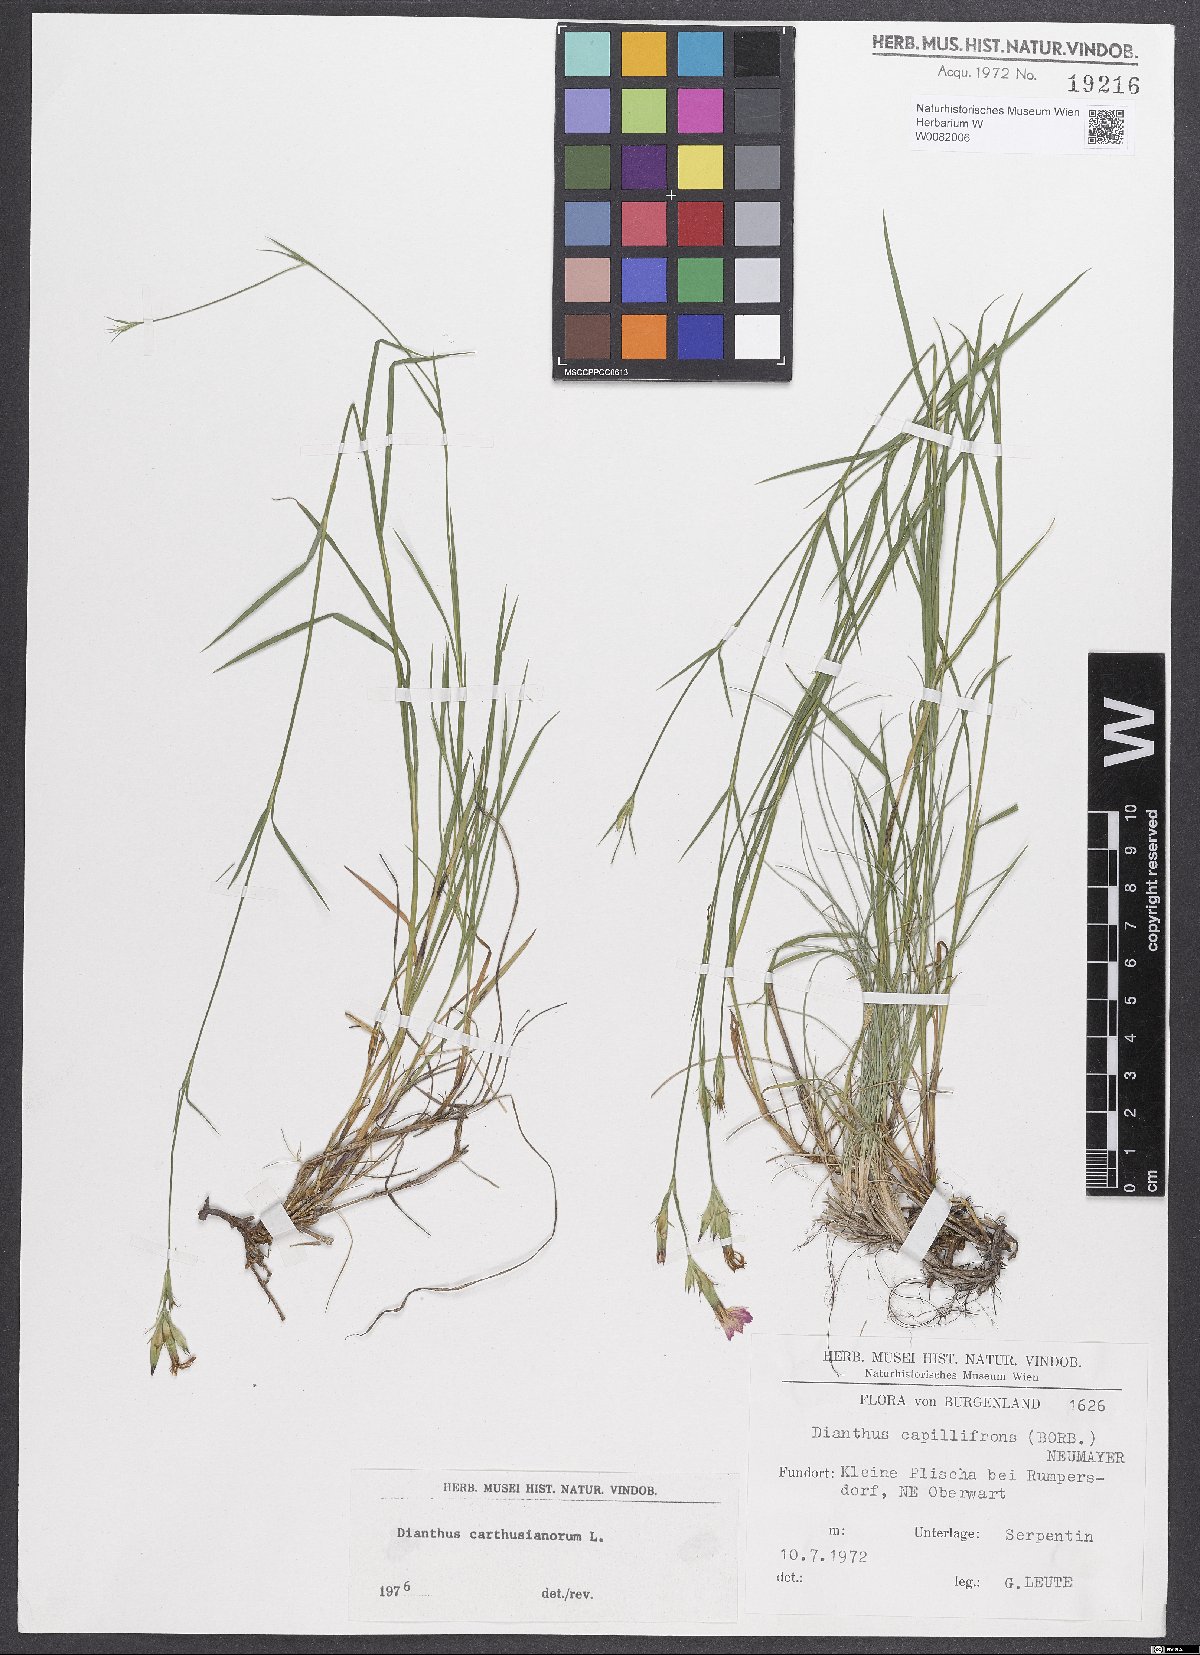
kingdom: Plantae
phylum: Tracheophyta
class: Magnoliopsida
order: Caryophyllales
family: Caryophyllaceae
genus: Dianthus
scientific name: Dianthus carthusianorum
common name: Carthusian pink
